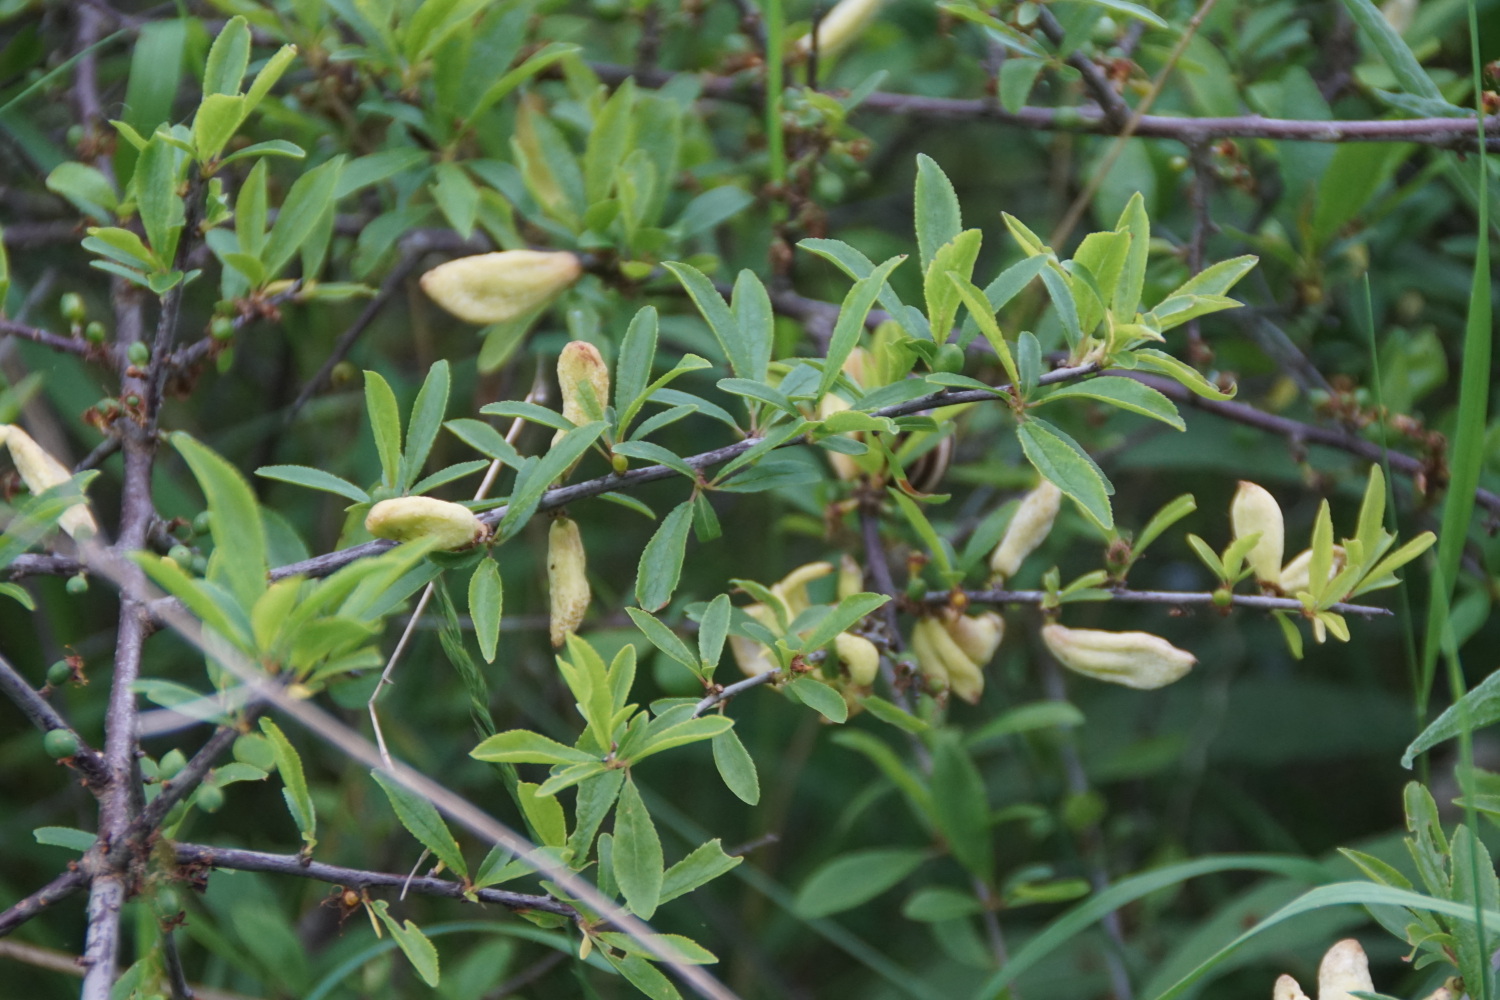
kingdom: Fungi
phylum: Ascomycota
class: Taphrinomycetes
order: Taphrinales
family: Taphrinaceae
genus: Taphrina
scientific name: Taphrina pruni
